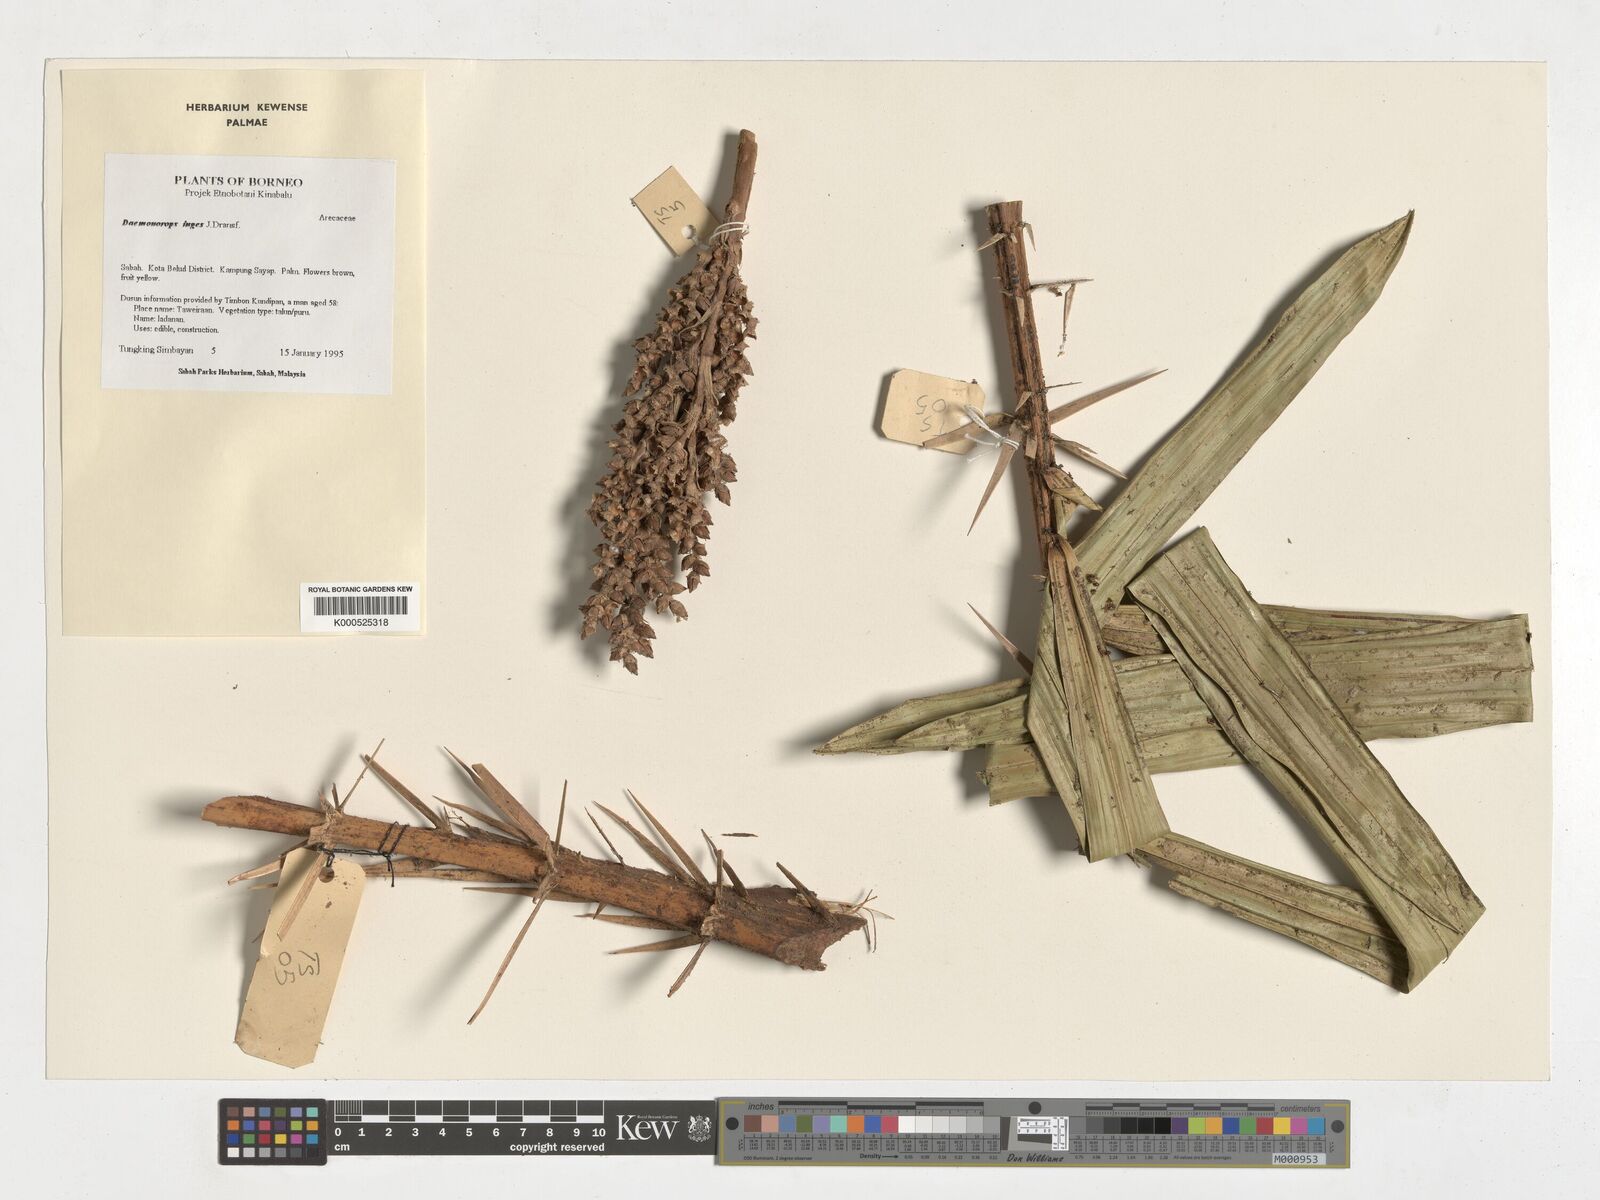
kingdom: Plantae
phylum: Tracheophyta
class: Liliopsida
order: Arecales
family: Arecaceae
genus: Calamus
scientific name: Calamus ingens
